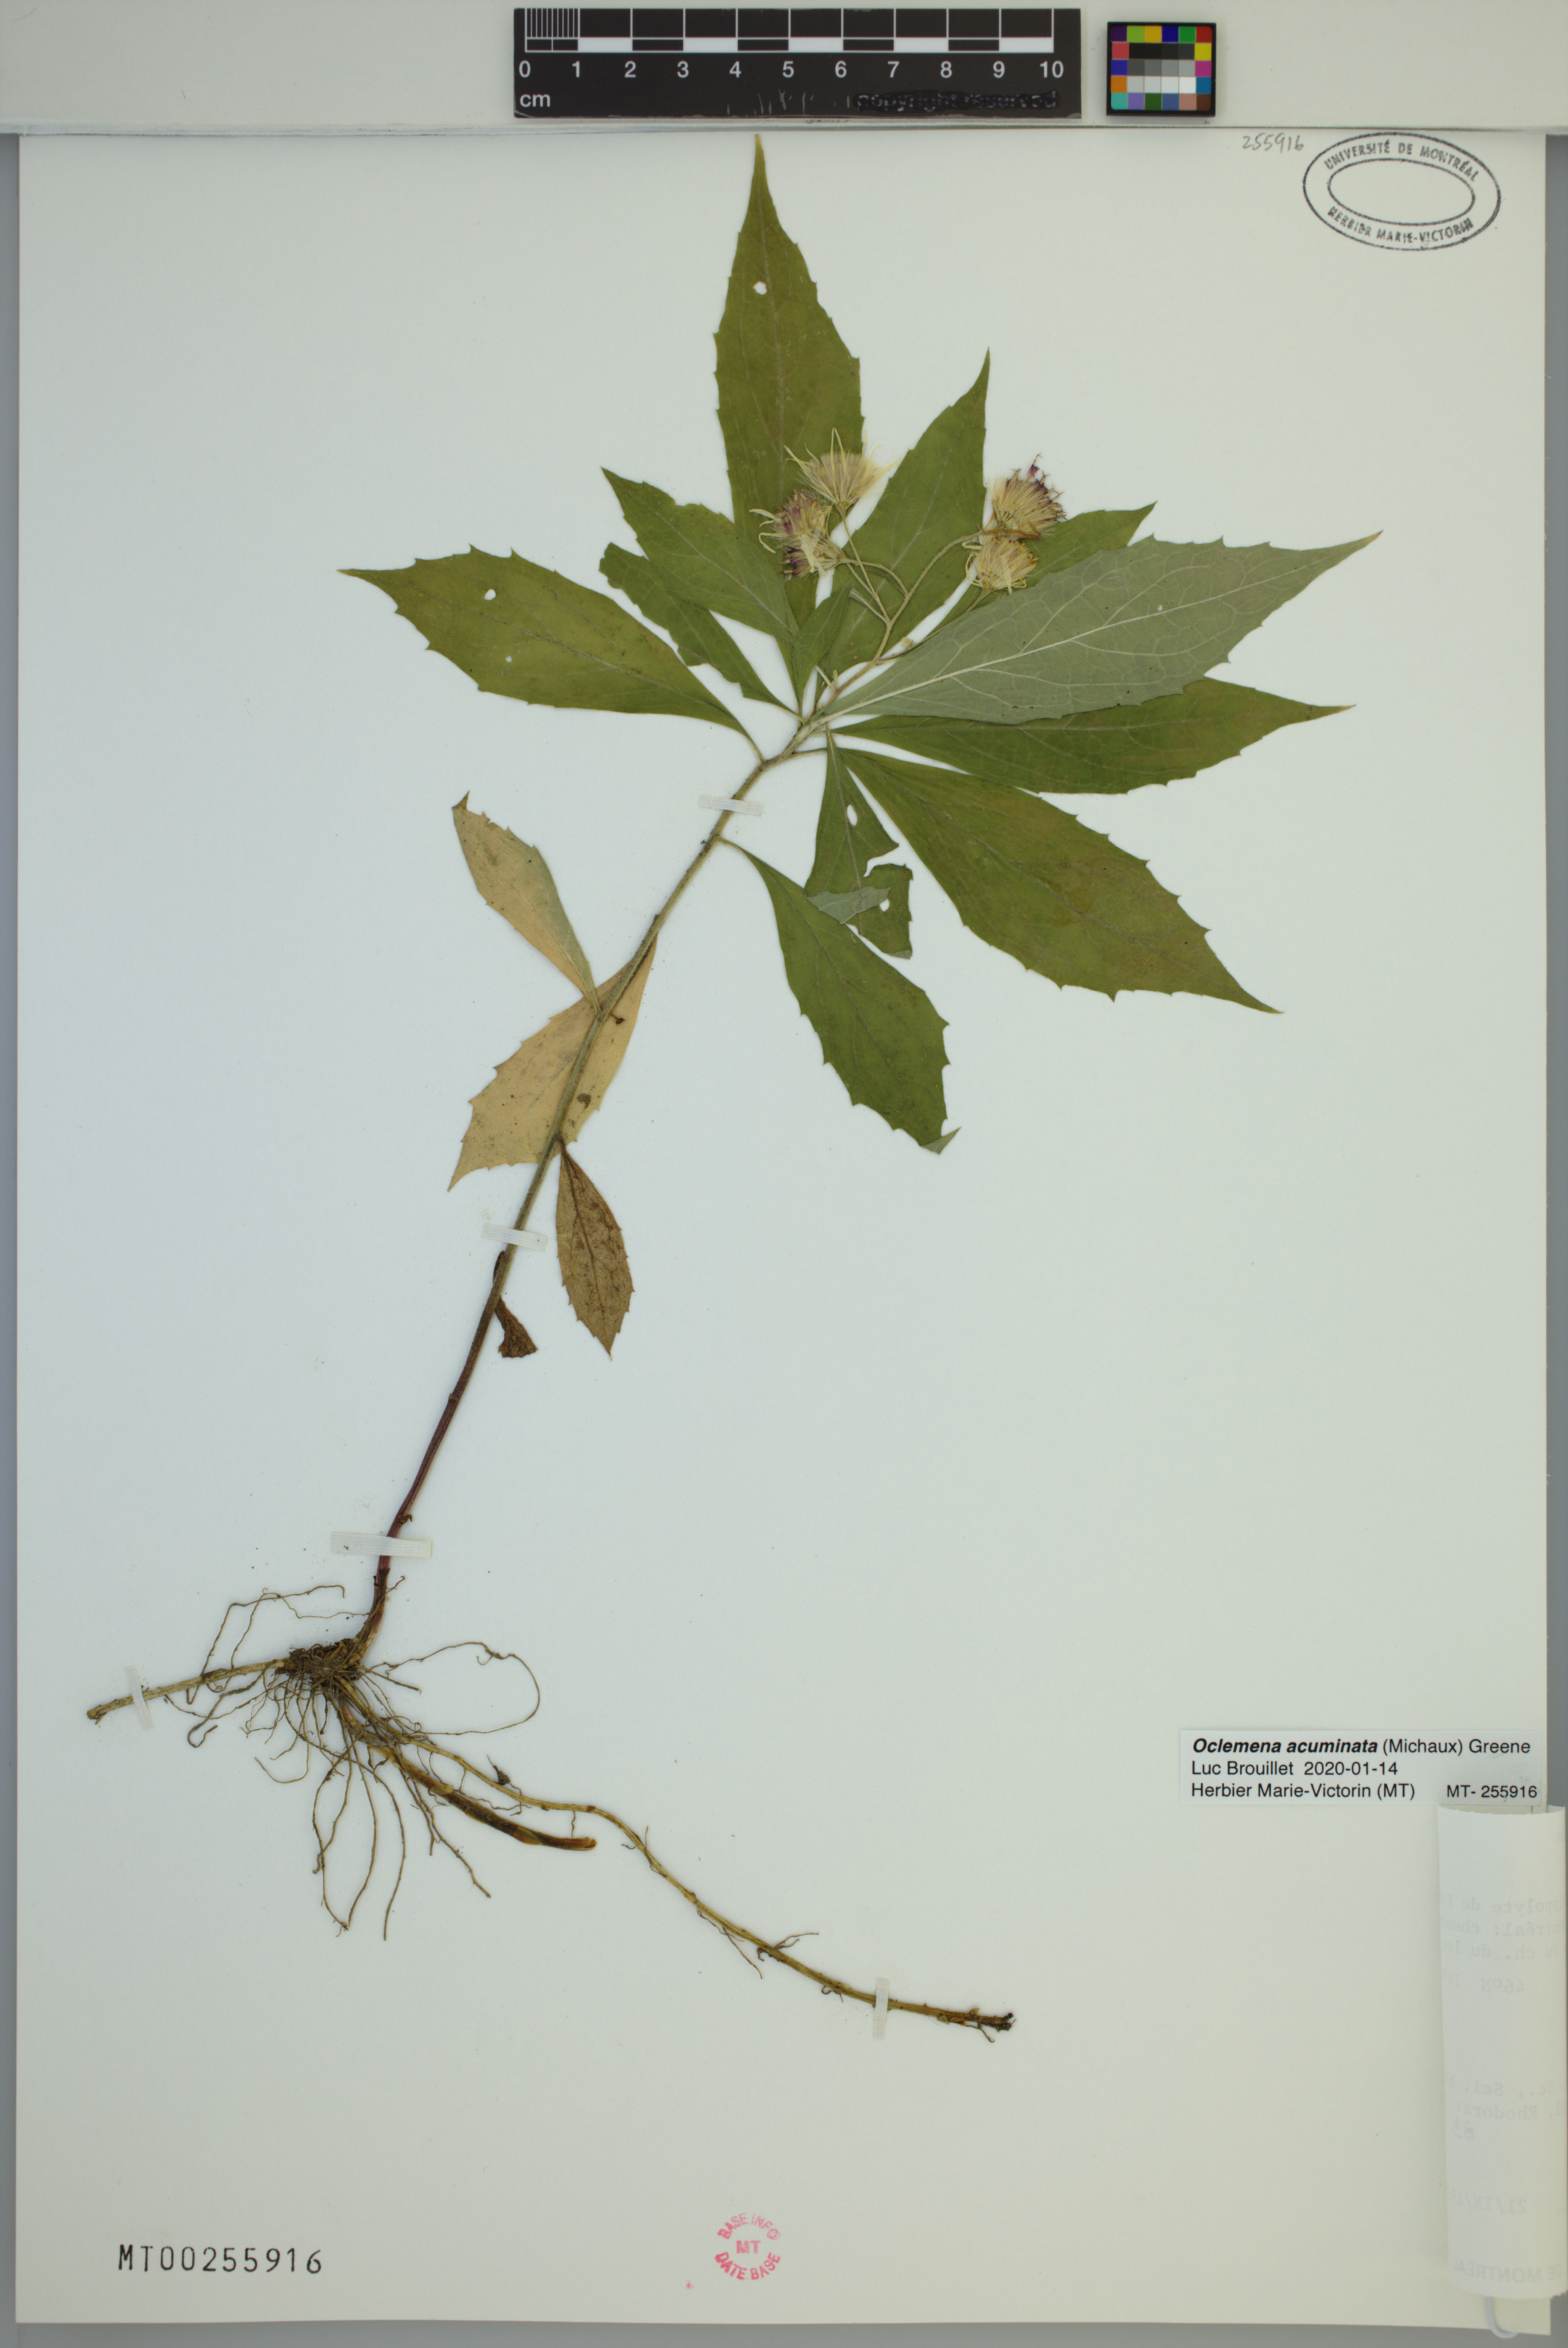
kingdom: Plantae
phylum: Tracheophyta
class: Magnoliopsida
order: Asterales
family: Asteraceae
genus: Oclemena
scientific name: Oclemena acuminata
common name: Mountain aster
